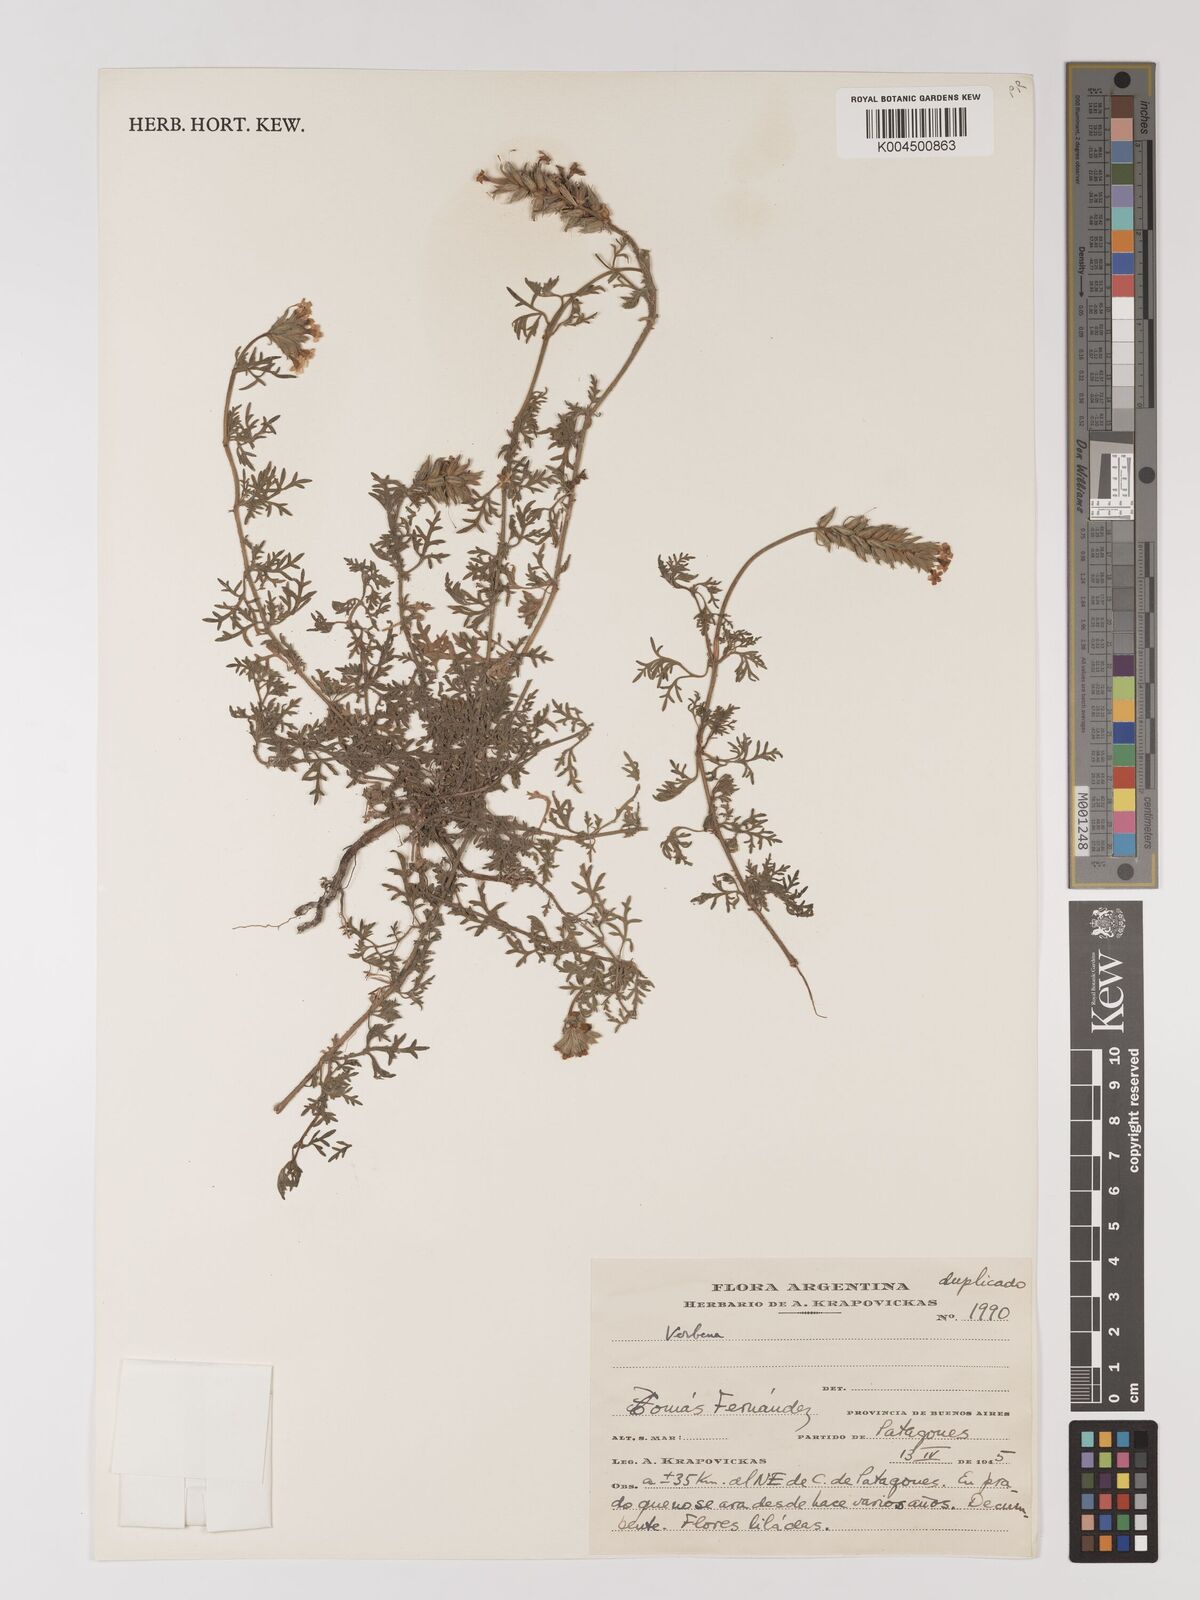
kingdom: Plantae
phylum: Tracheophyta
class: Magnoliopsida
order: Lamiales
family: Verbenaceae
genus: Verbena
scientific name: Verbena
